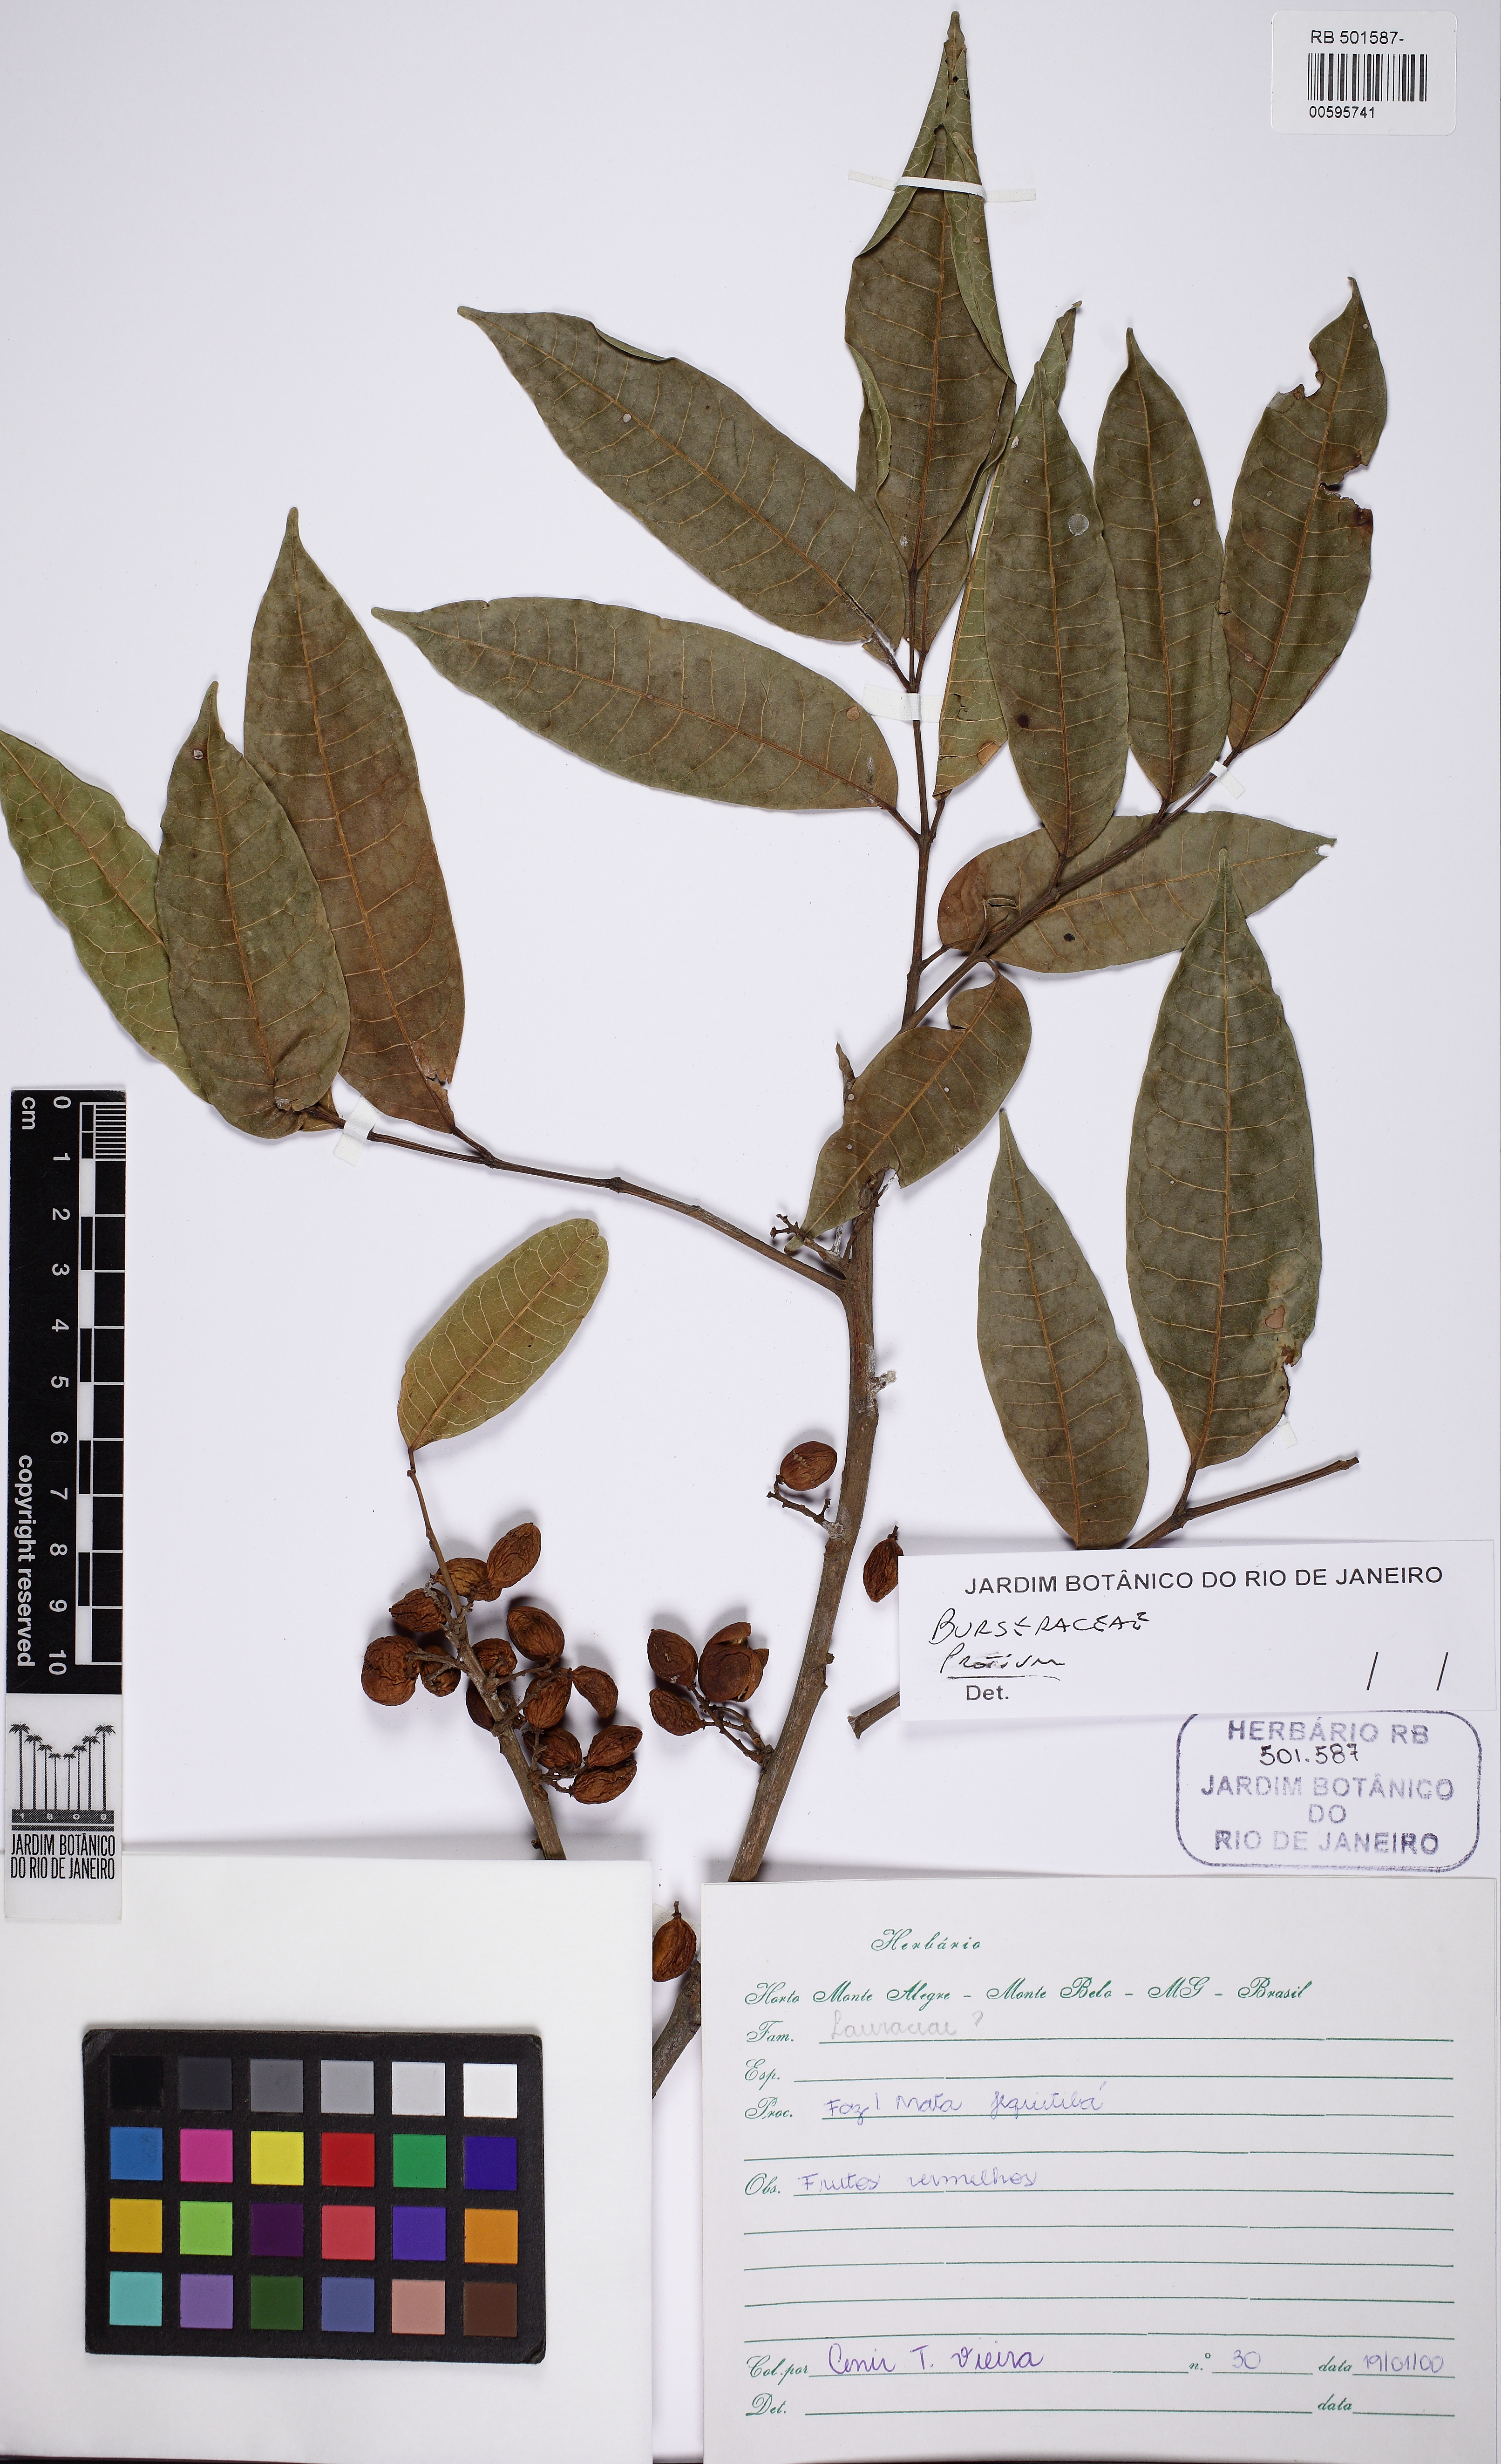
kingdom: Plantae
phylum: Tracheophyta
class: Magnoliopsida
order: Sapindales
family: Burseraceae
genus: Protium
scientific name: Protium spruceanum
